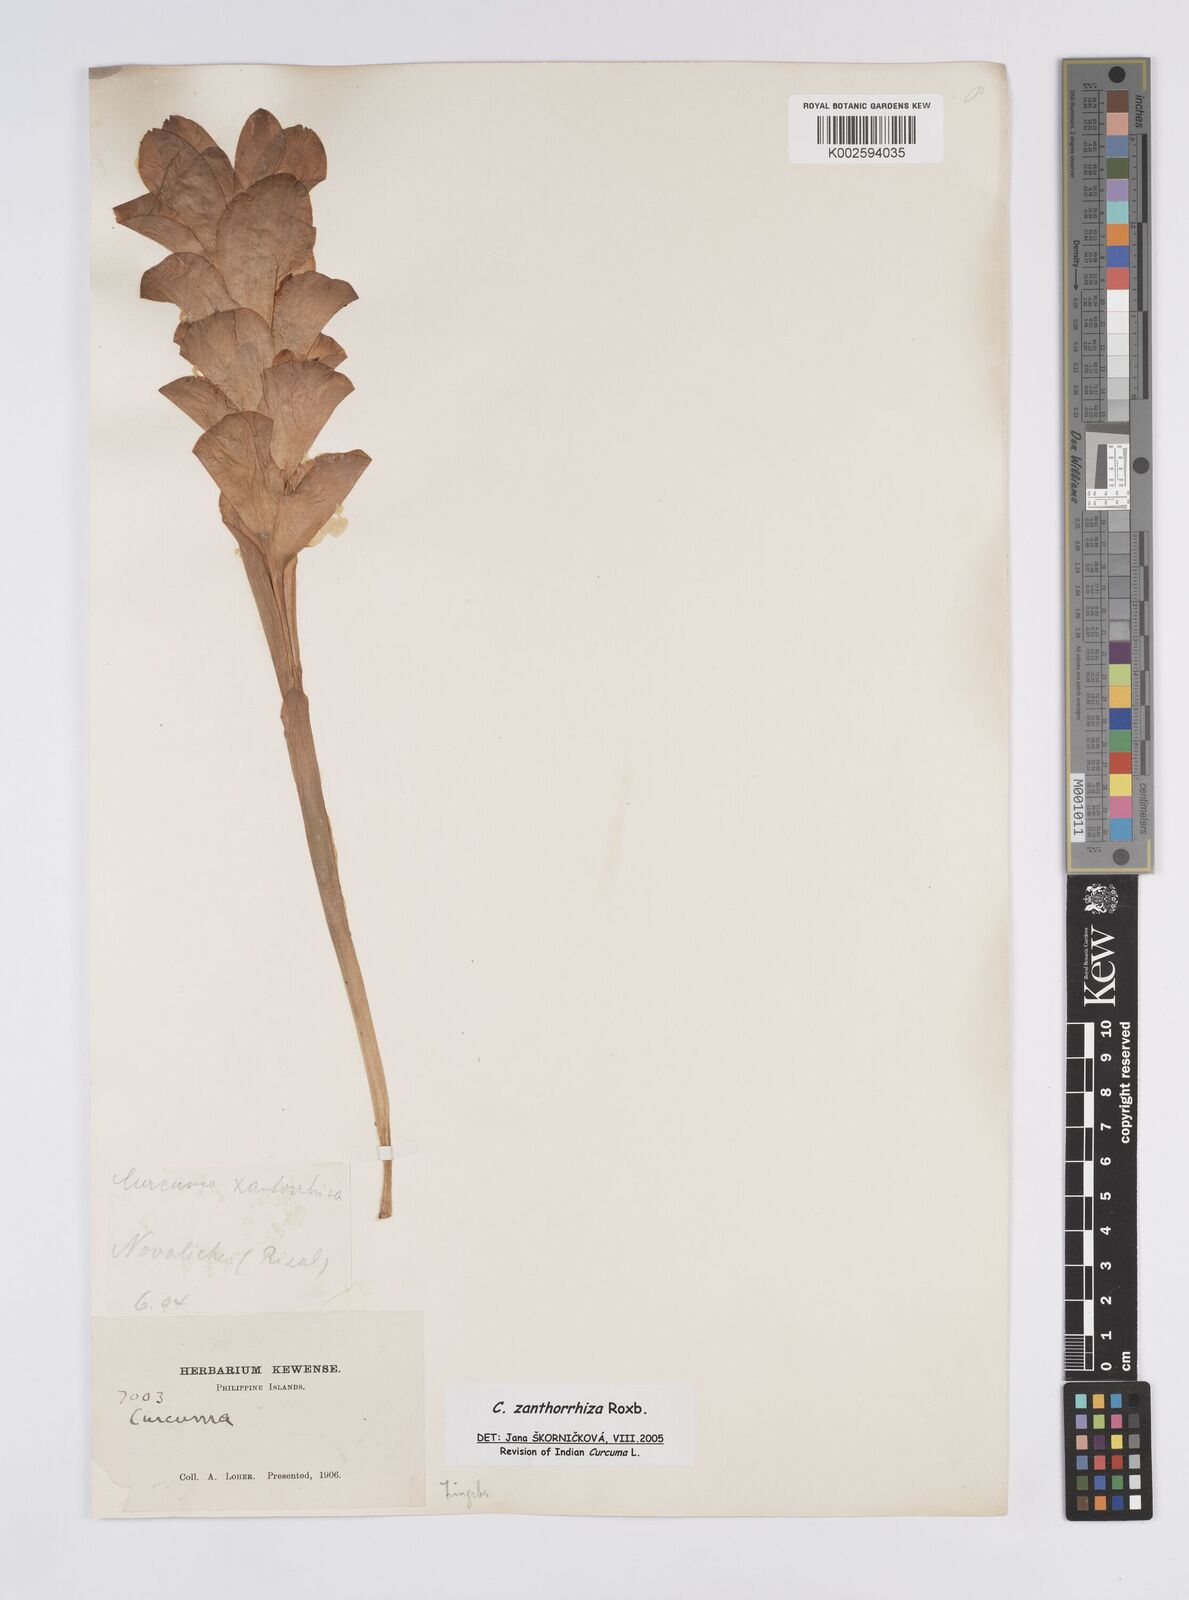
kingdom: Plantae
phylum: Tracheophyta
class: Liliopsida
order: Zingiberales
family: Zingiberaceae
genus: Curcuma
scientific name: Curcuma zanthorrhiza
